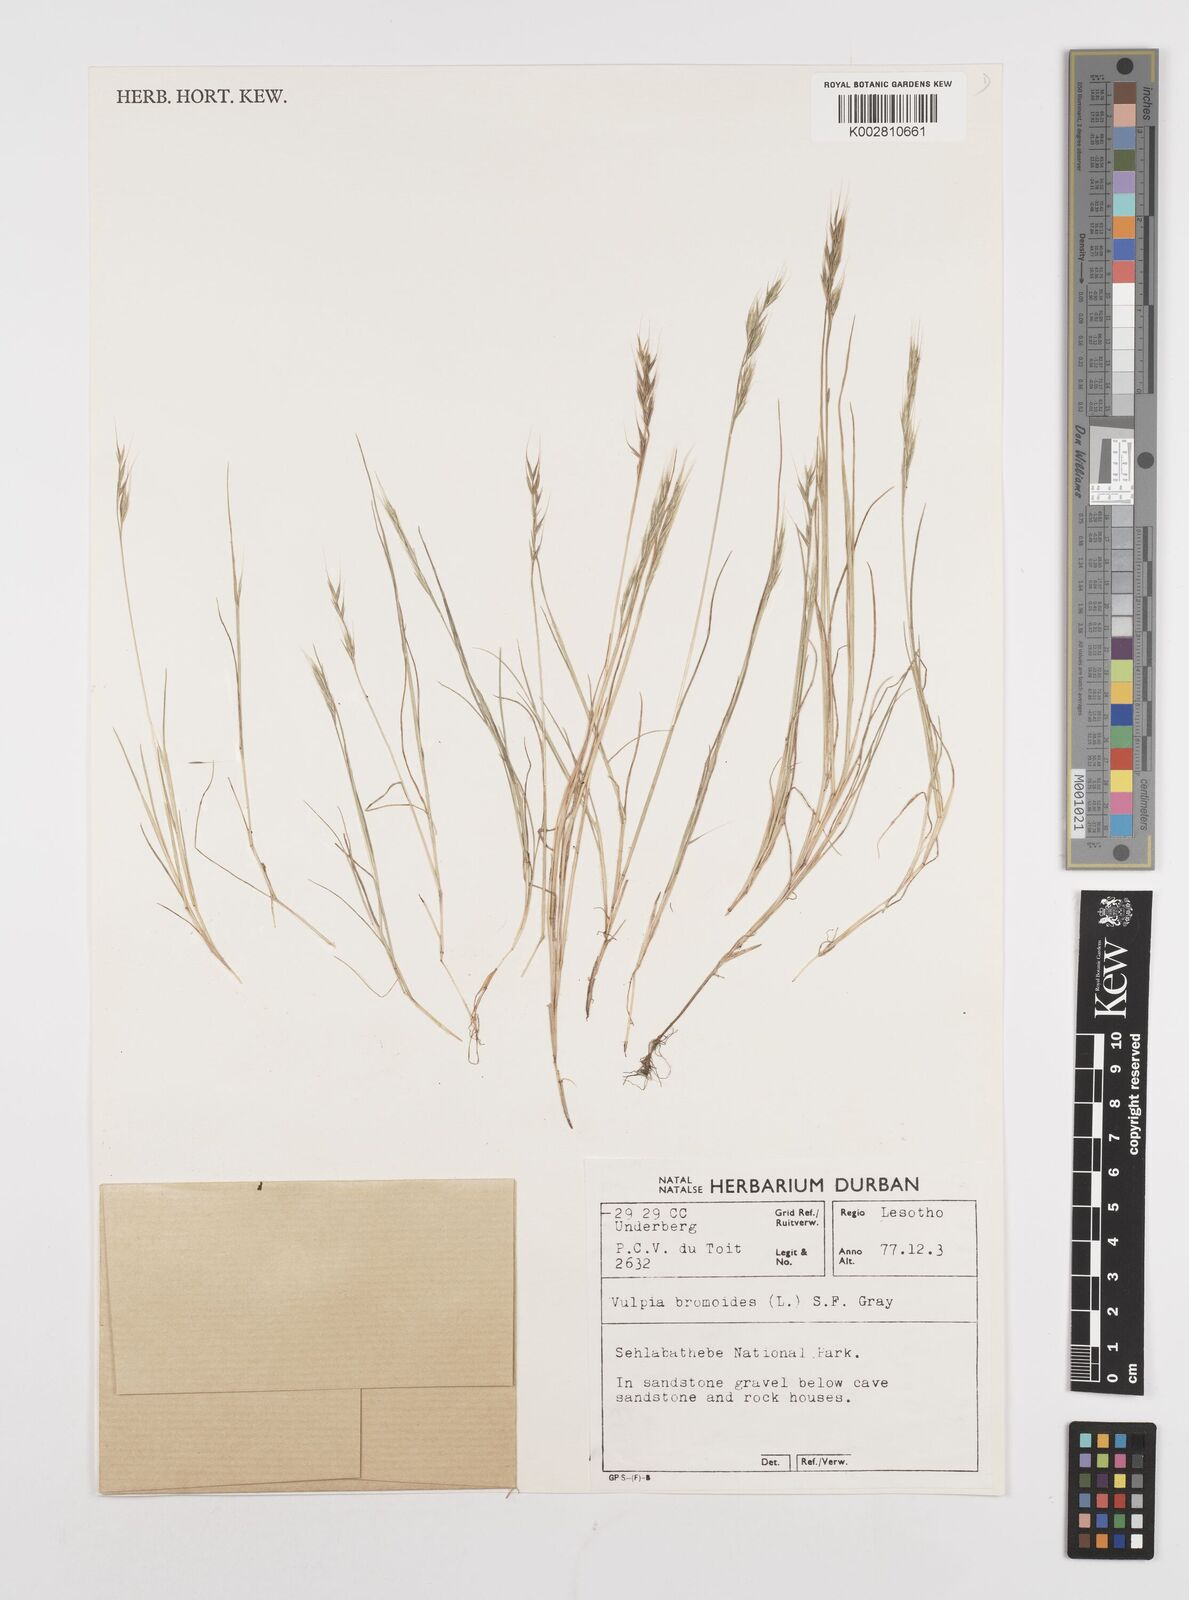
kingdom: Plantae
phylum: Tracheophyta
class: Liliopsida
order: Poales
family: Poaceae
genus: Festuca
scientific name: Festuca bromoides
